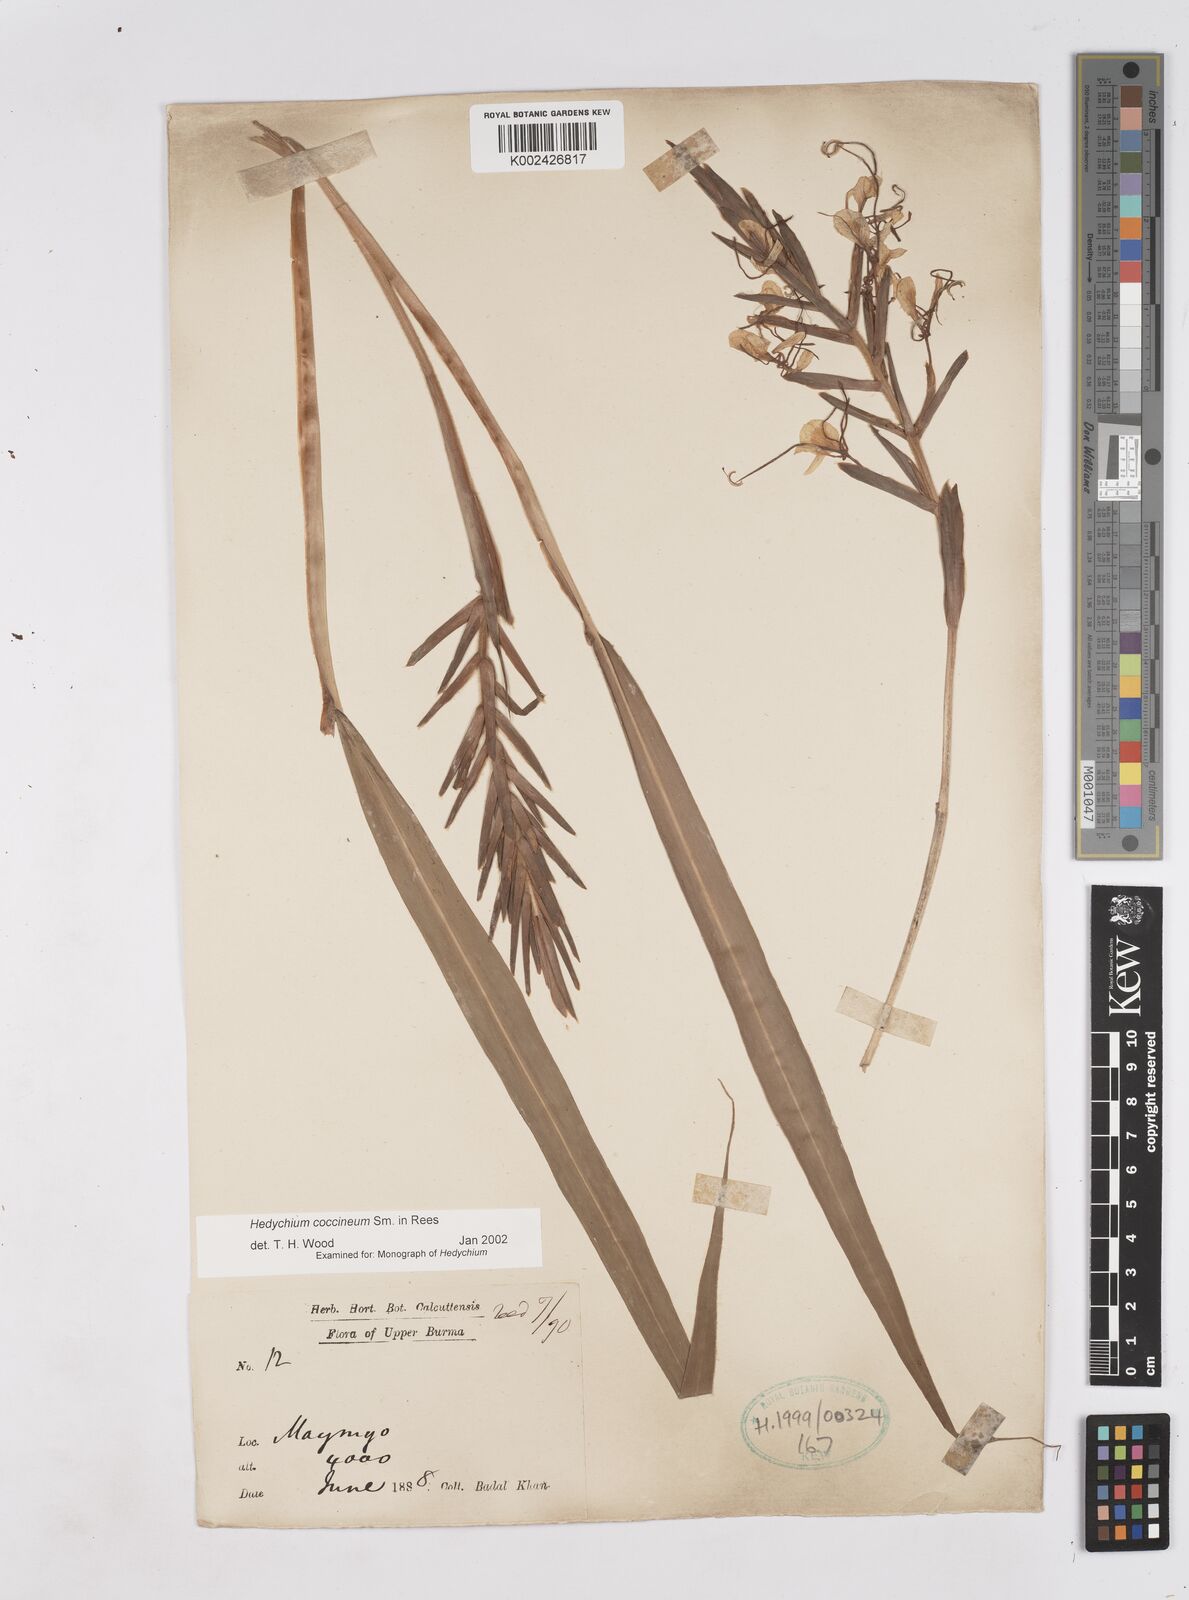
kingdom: Plantae
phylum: Tracheophyta
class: Liliopsida
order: Zingiberales
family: Zingiberaceae
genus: Hedychium
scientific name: Hedychium coccineum
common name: Red ginger-lily
